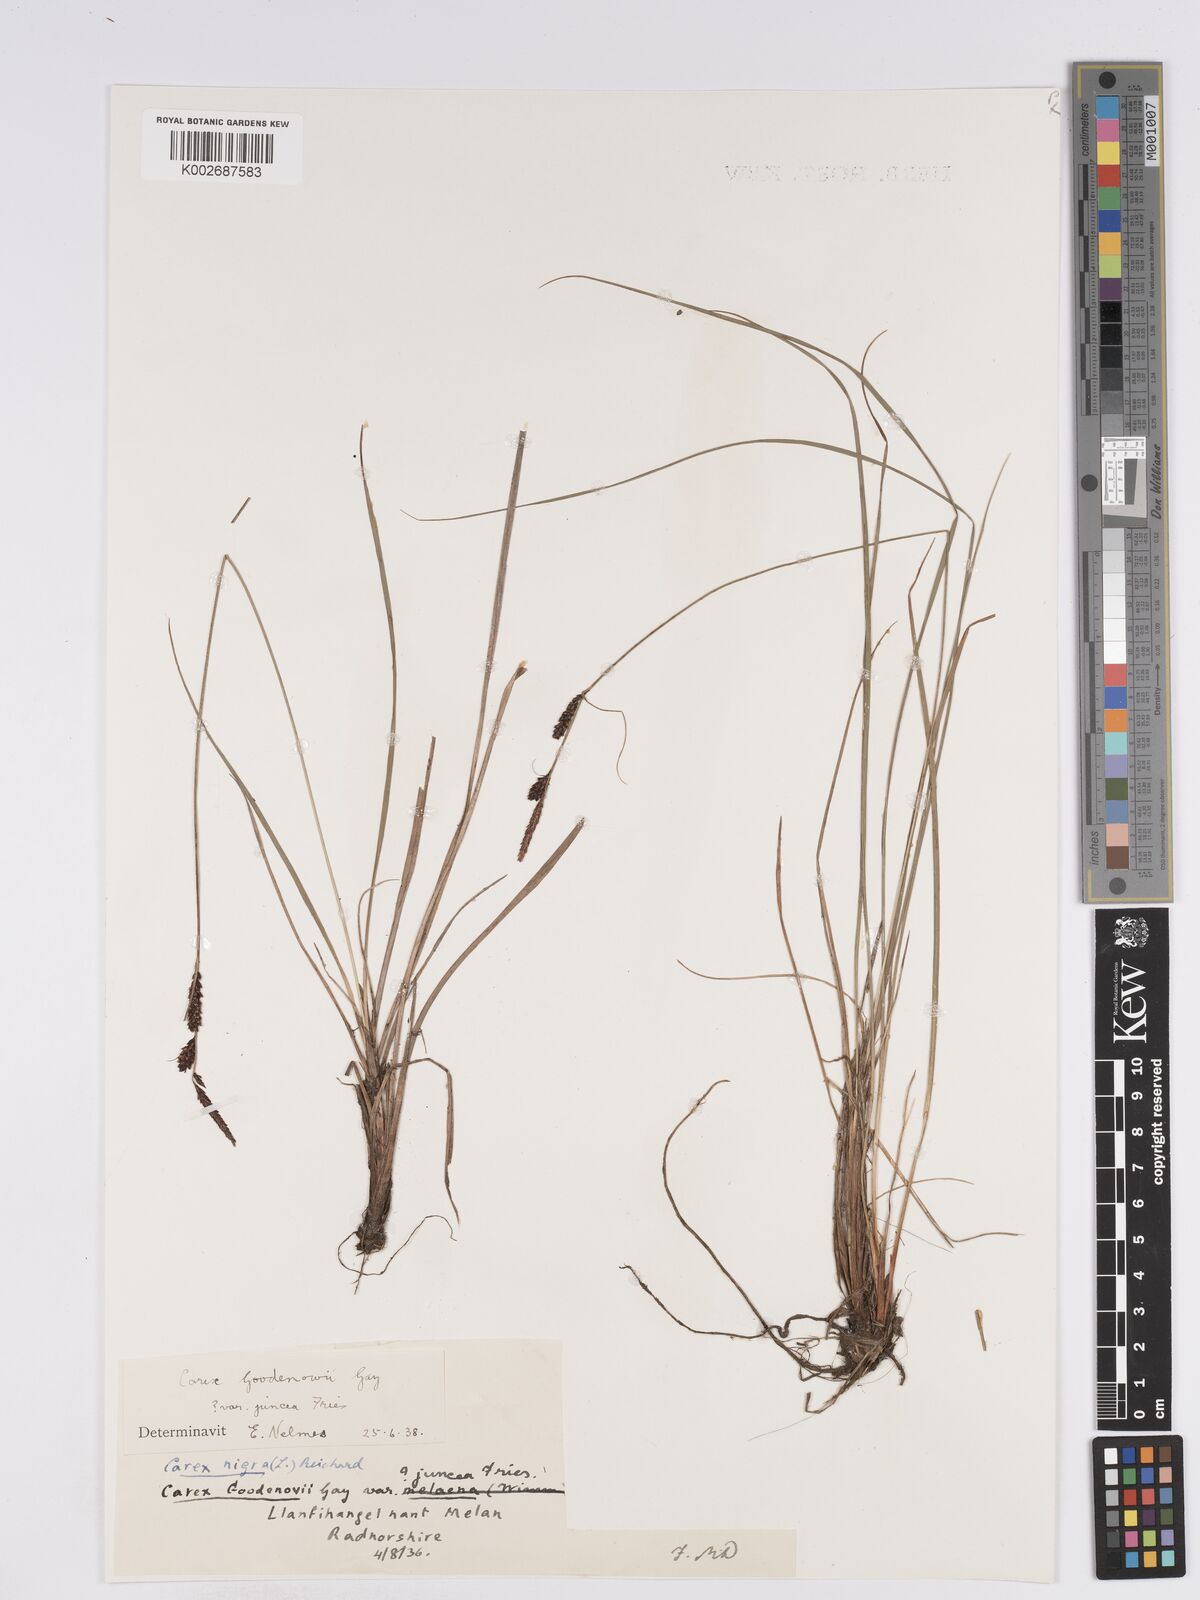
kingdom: Plantae
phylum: Tracheophyta
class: Liliopsida
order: Poales
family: Cyperaceae
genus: Carex
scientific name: Carex nigra
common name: Common sedge
